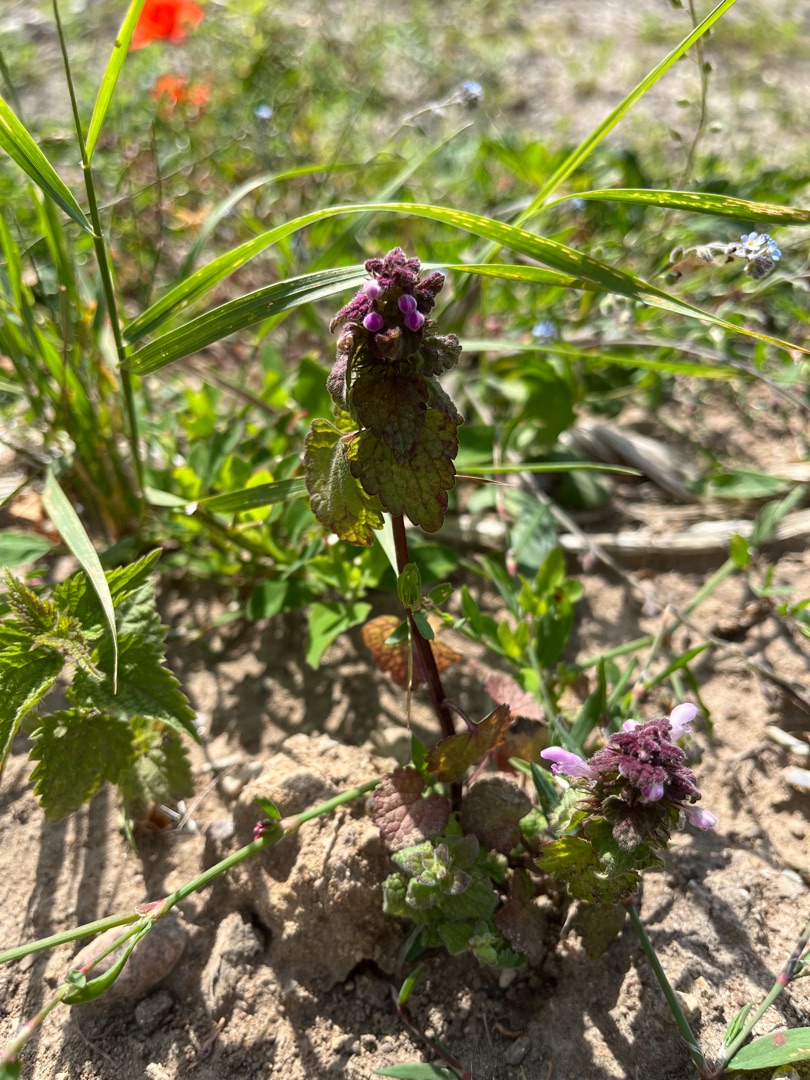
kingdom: Plantae
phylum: Tracheophyta
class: Magnoliopsida
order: Lamiales
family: Lamiaceae
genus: Lamium
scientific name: Lamium purpureum
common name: Rød tvetand
